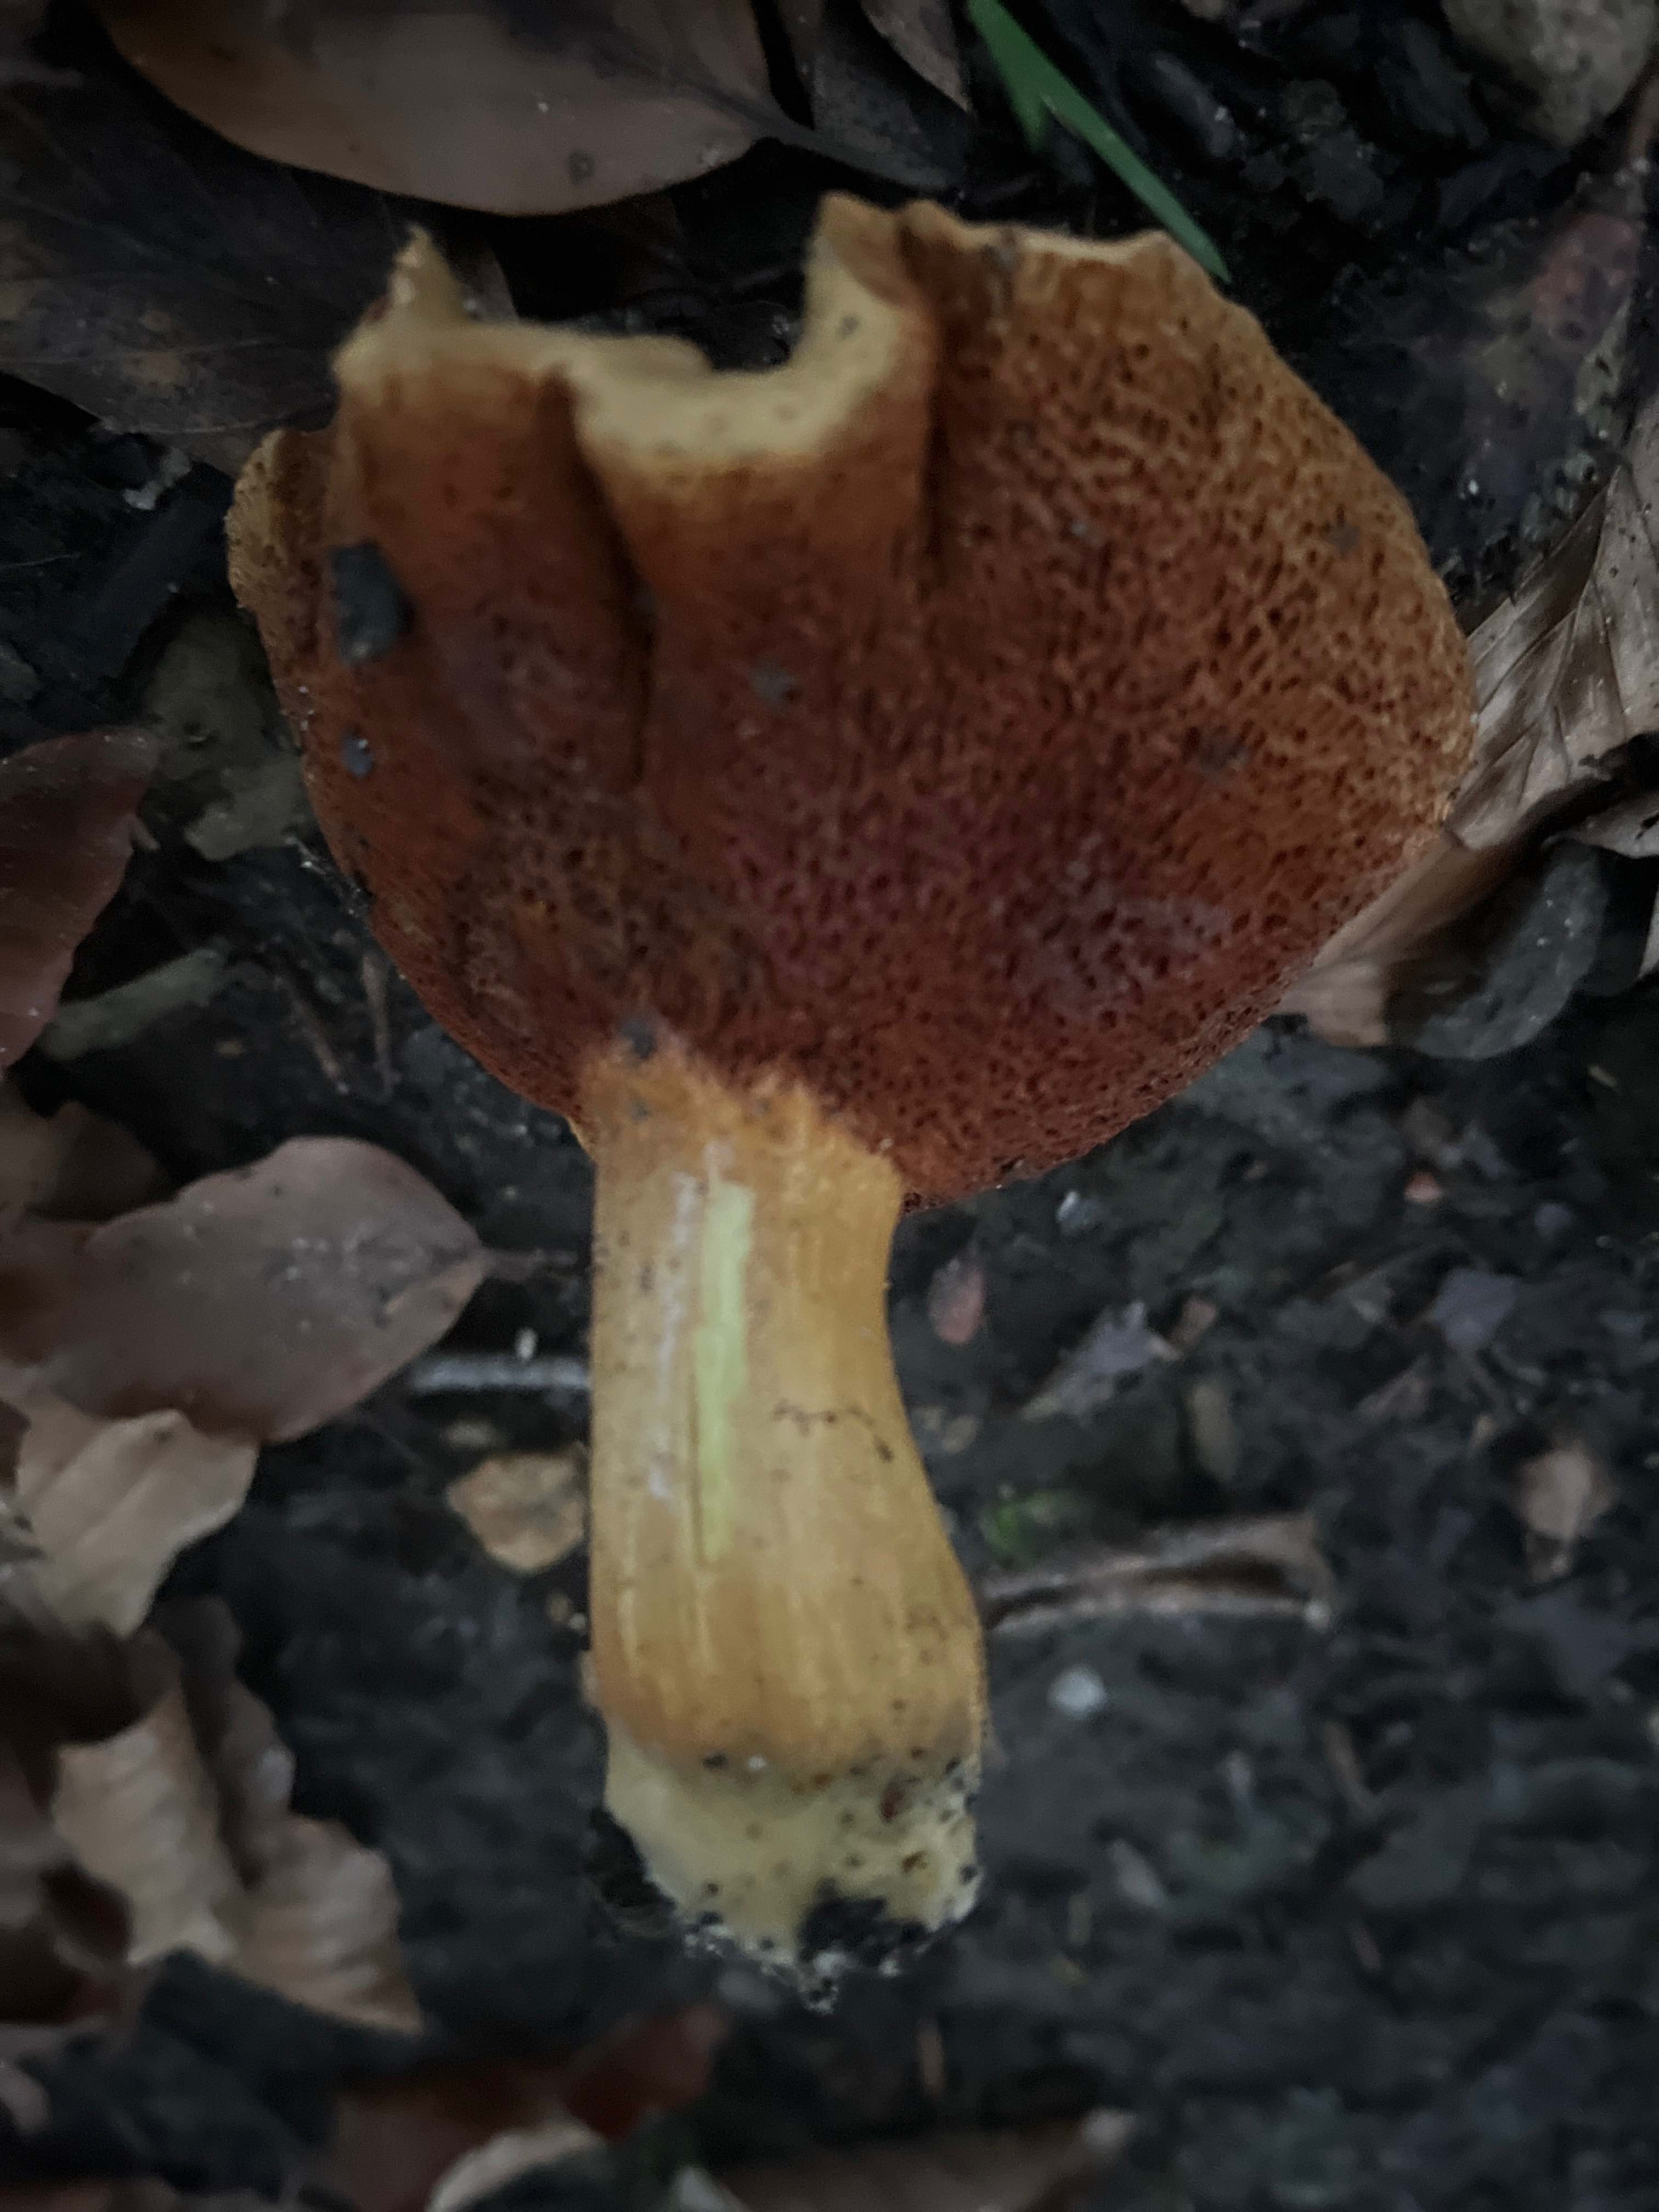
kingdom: Fungi
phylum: Basidiomycota
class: Agaricomycetes
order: Boletales
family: Boletaceae
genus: Chalciporus
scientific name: Chalciporus piperatus
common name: peberrørhat
